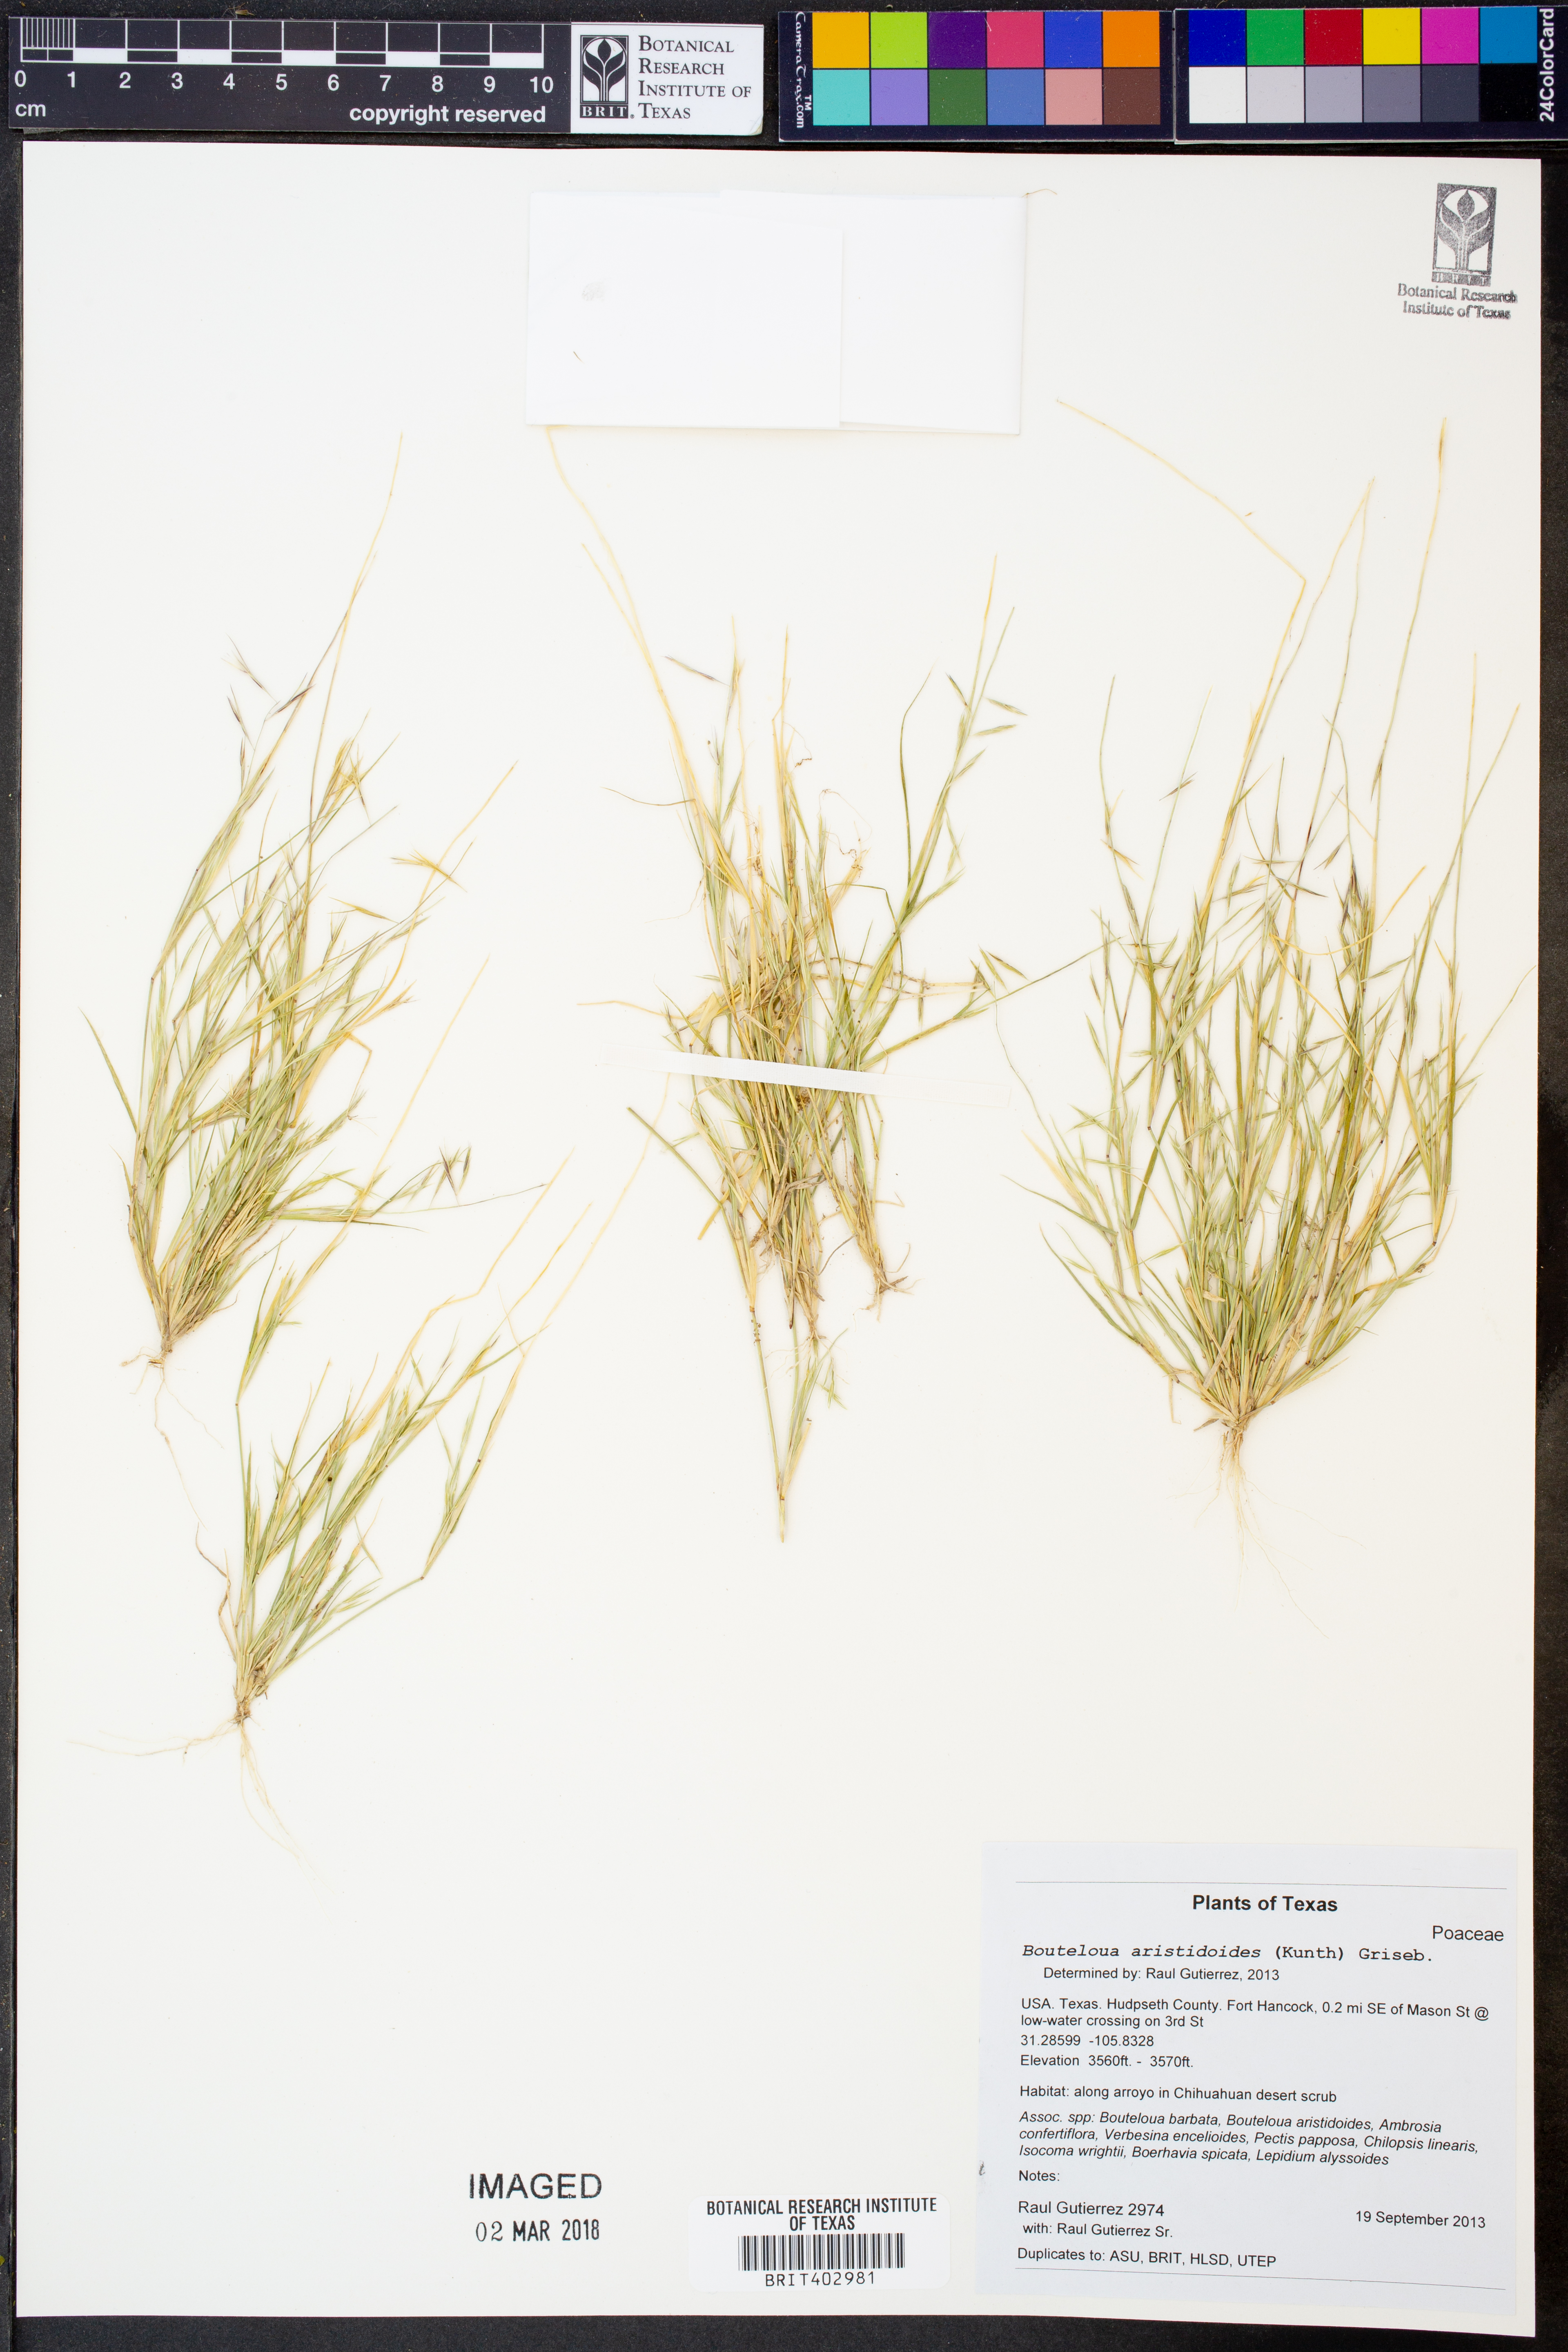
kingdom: Plantae
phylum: Tracheophyta
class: Liliopsida
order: Poales
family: Poaceae
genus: Bouteloua
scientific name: Bouteloua aristidoides
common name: Needle grama
